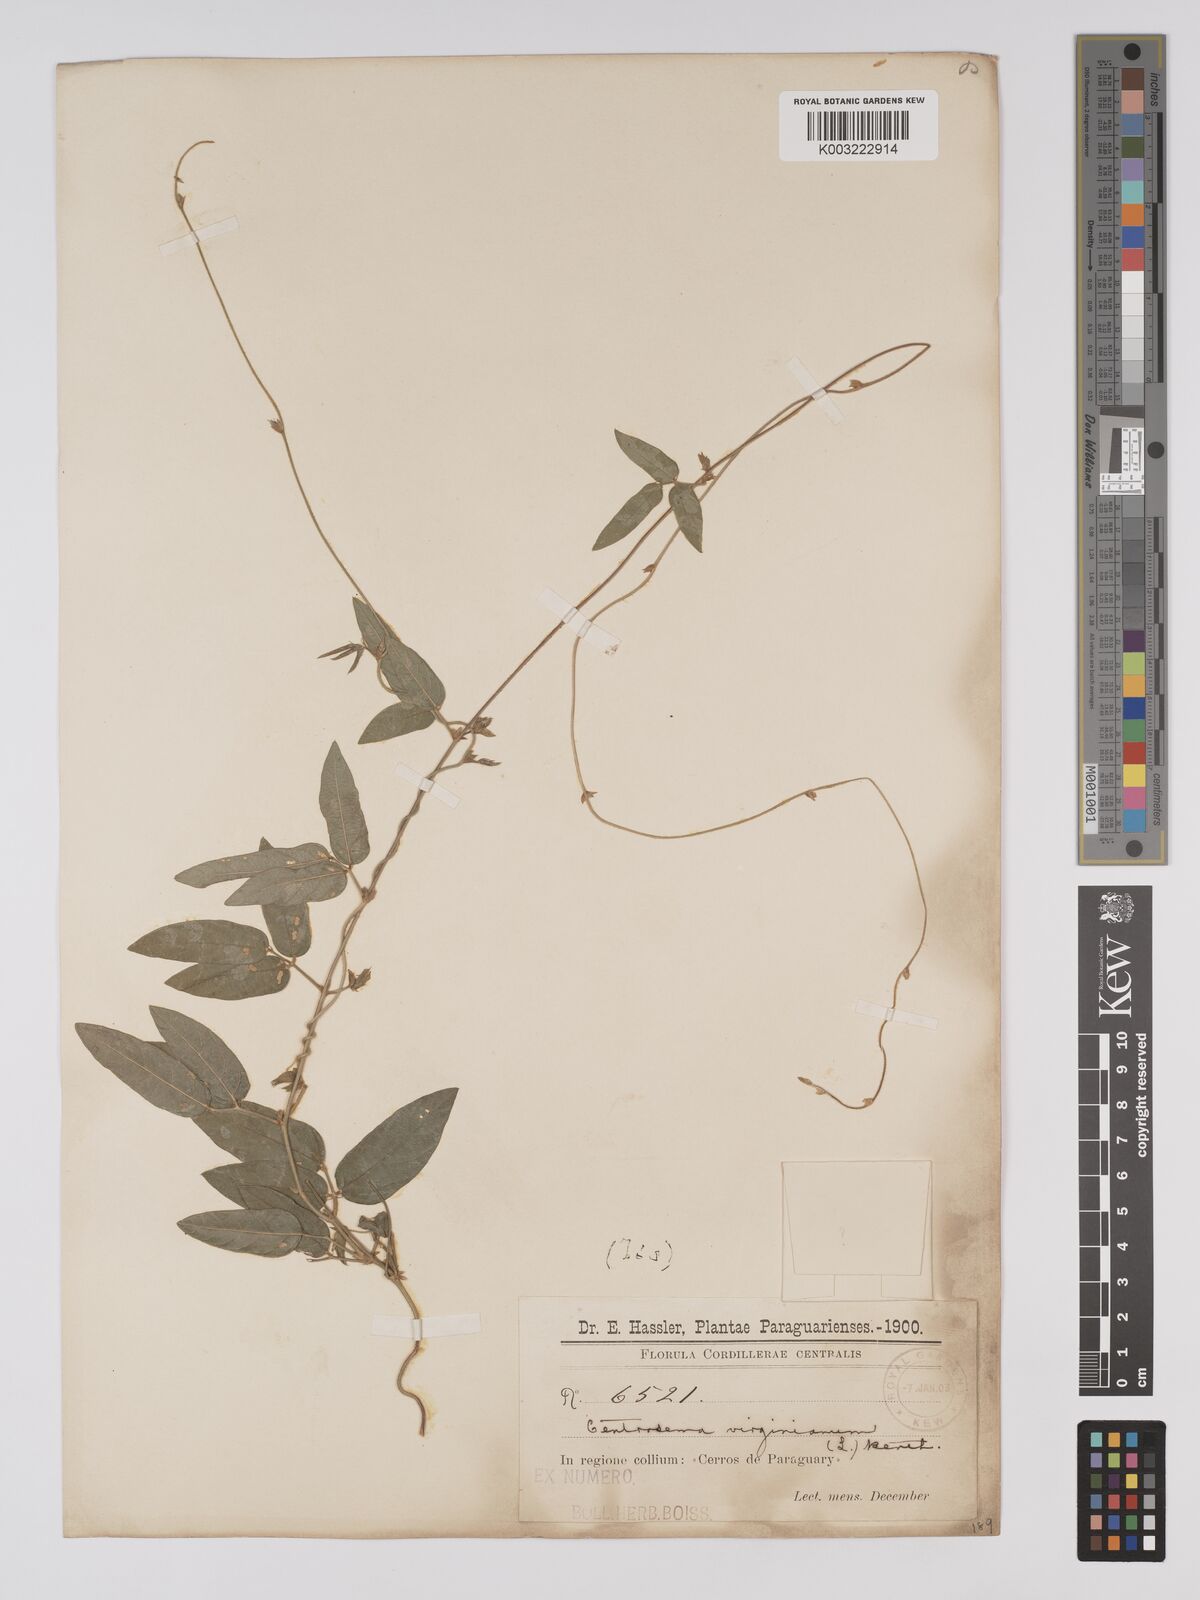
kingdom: Plantae
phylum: Tracheophyta
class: Magnoliopsida
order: Fabales
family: Fabaceae
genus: Centrosema
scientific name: Centrosema virginianum
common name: Butterfly-pea
